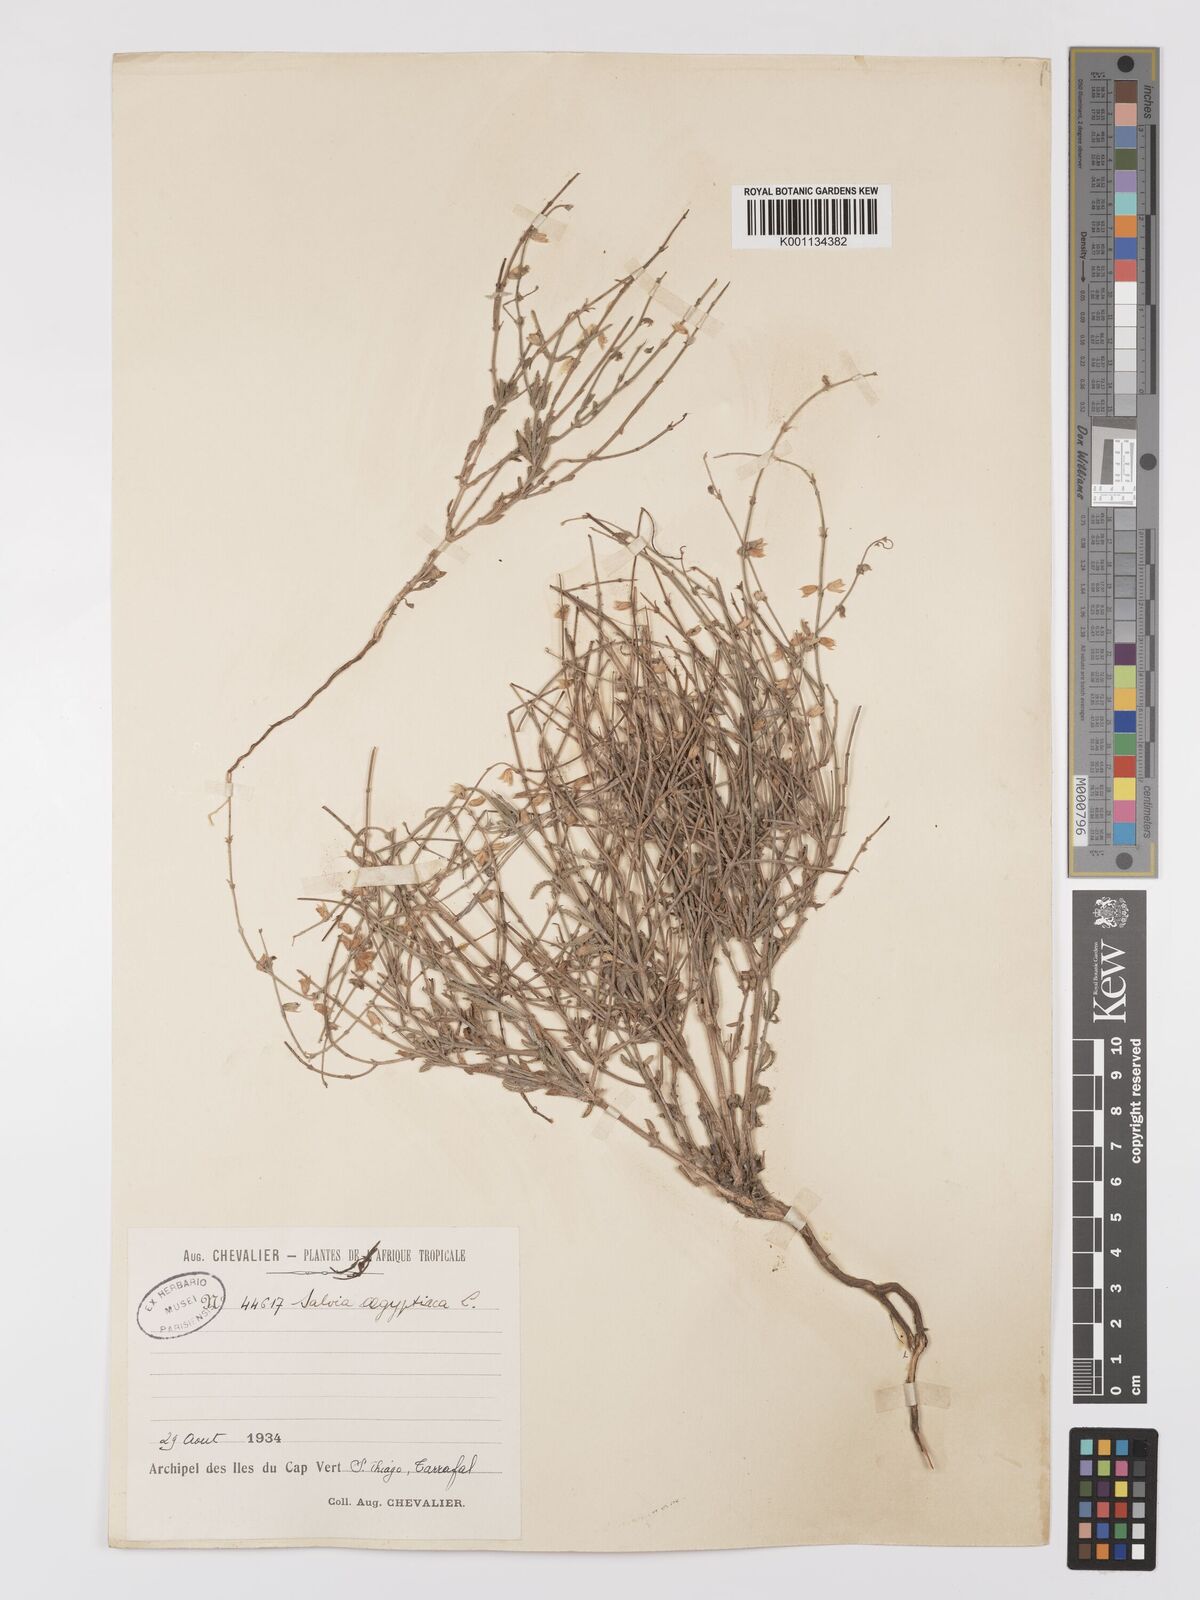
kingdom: Plantae
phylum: Tracheophyta
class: Magnoliopsida
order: Lamiales
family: Lamiaceae
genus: Salvia
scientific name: Salvia aegyptiaca
